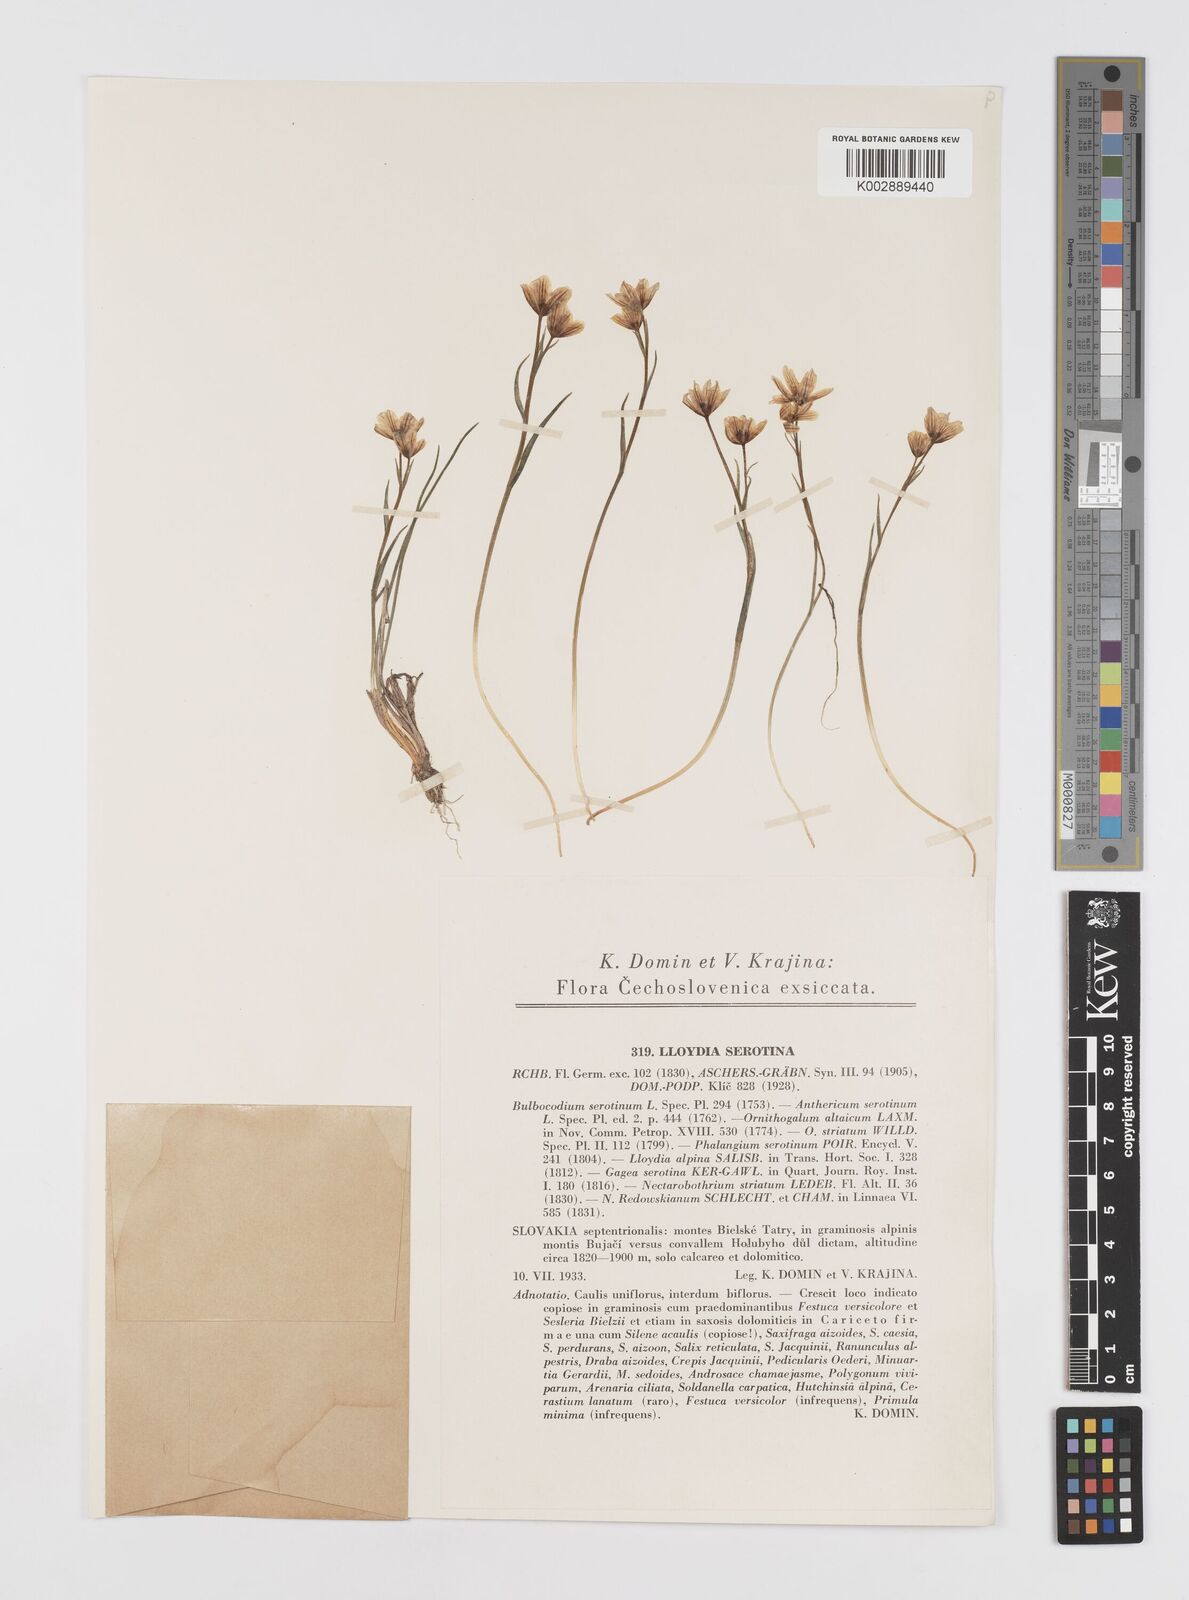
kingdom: Plantae
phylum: Tracheophyta
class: Liliopsida
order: Liliales
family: Liliaceae
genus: Gagea
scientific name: Gagea
